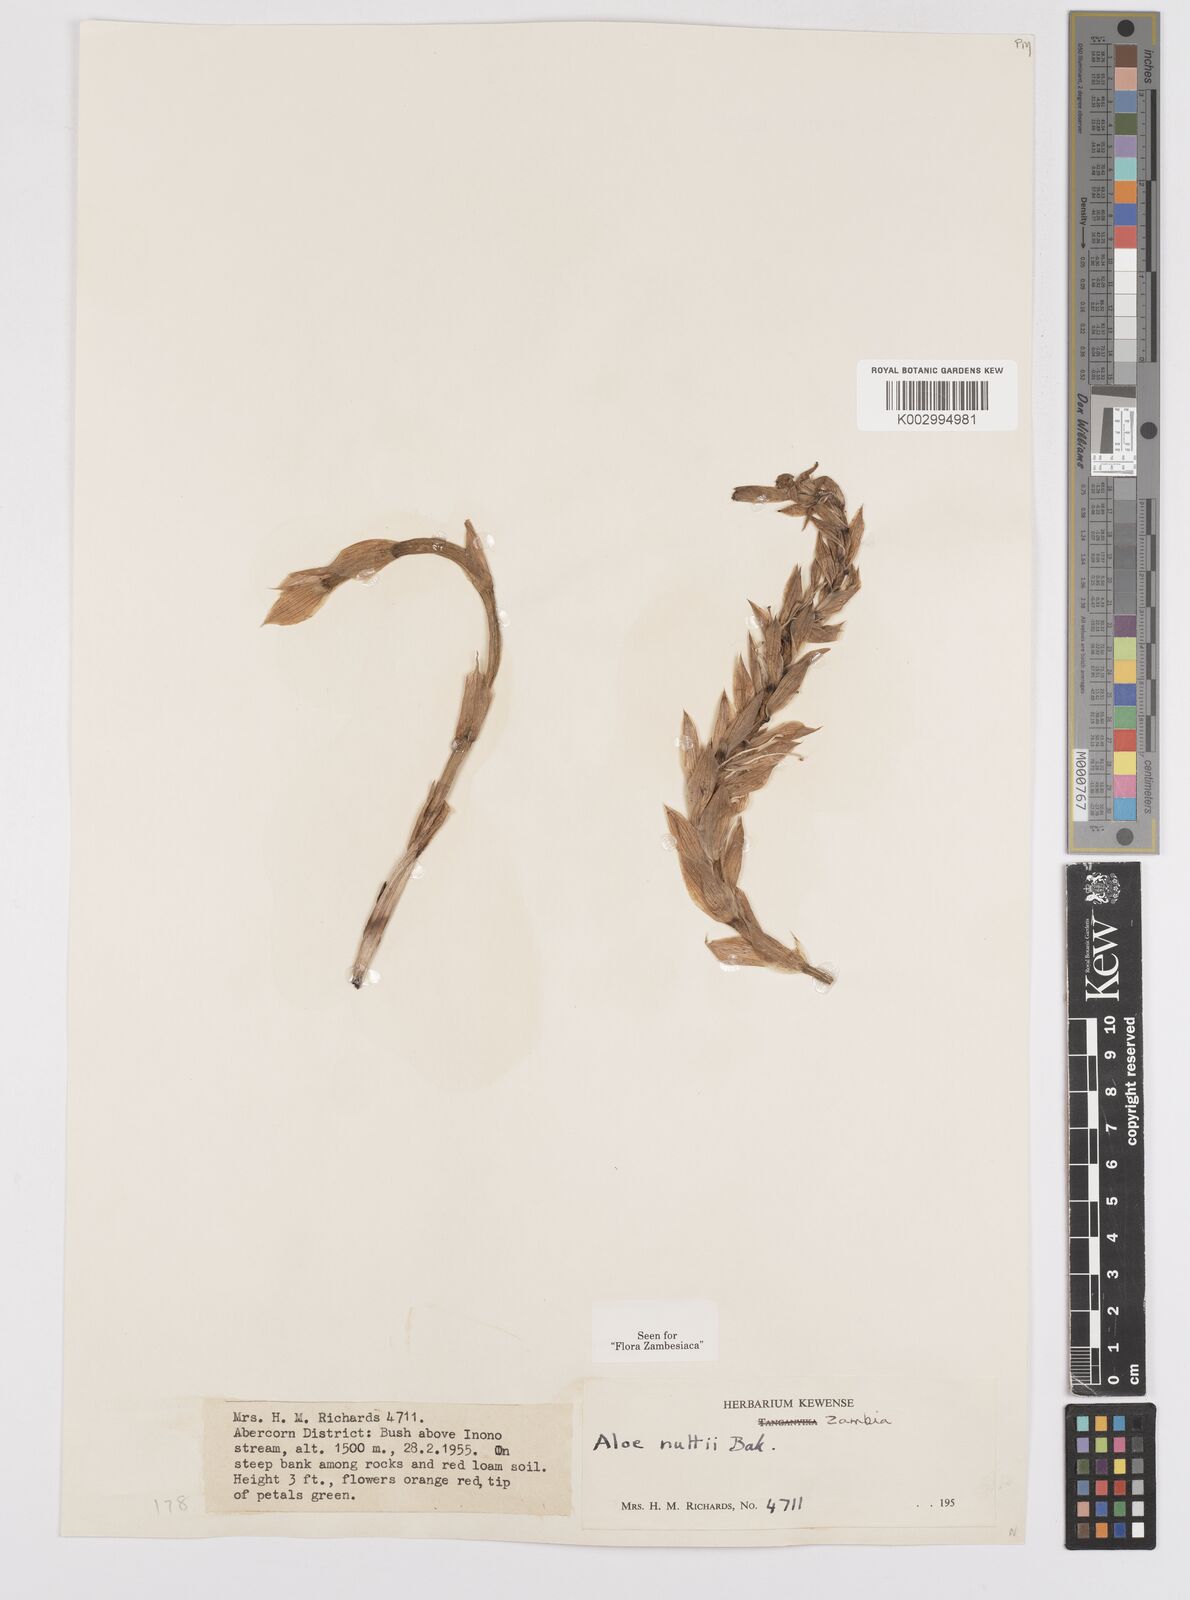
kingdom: Plantae
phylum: Tracheophyta
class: Liliopsida
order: Asparagales
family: Asphodelaceae
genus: Aloe
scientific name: Aloe nuttii
